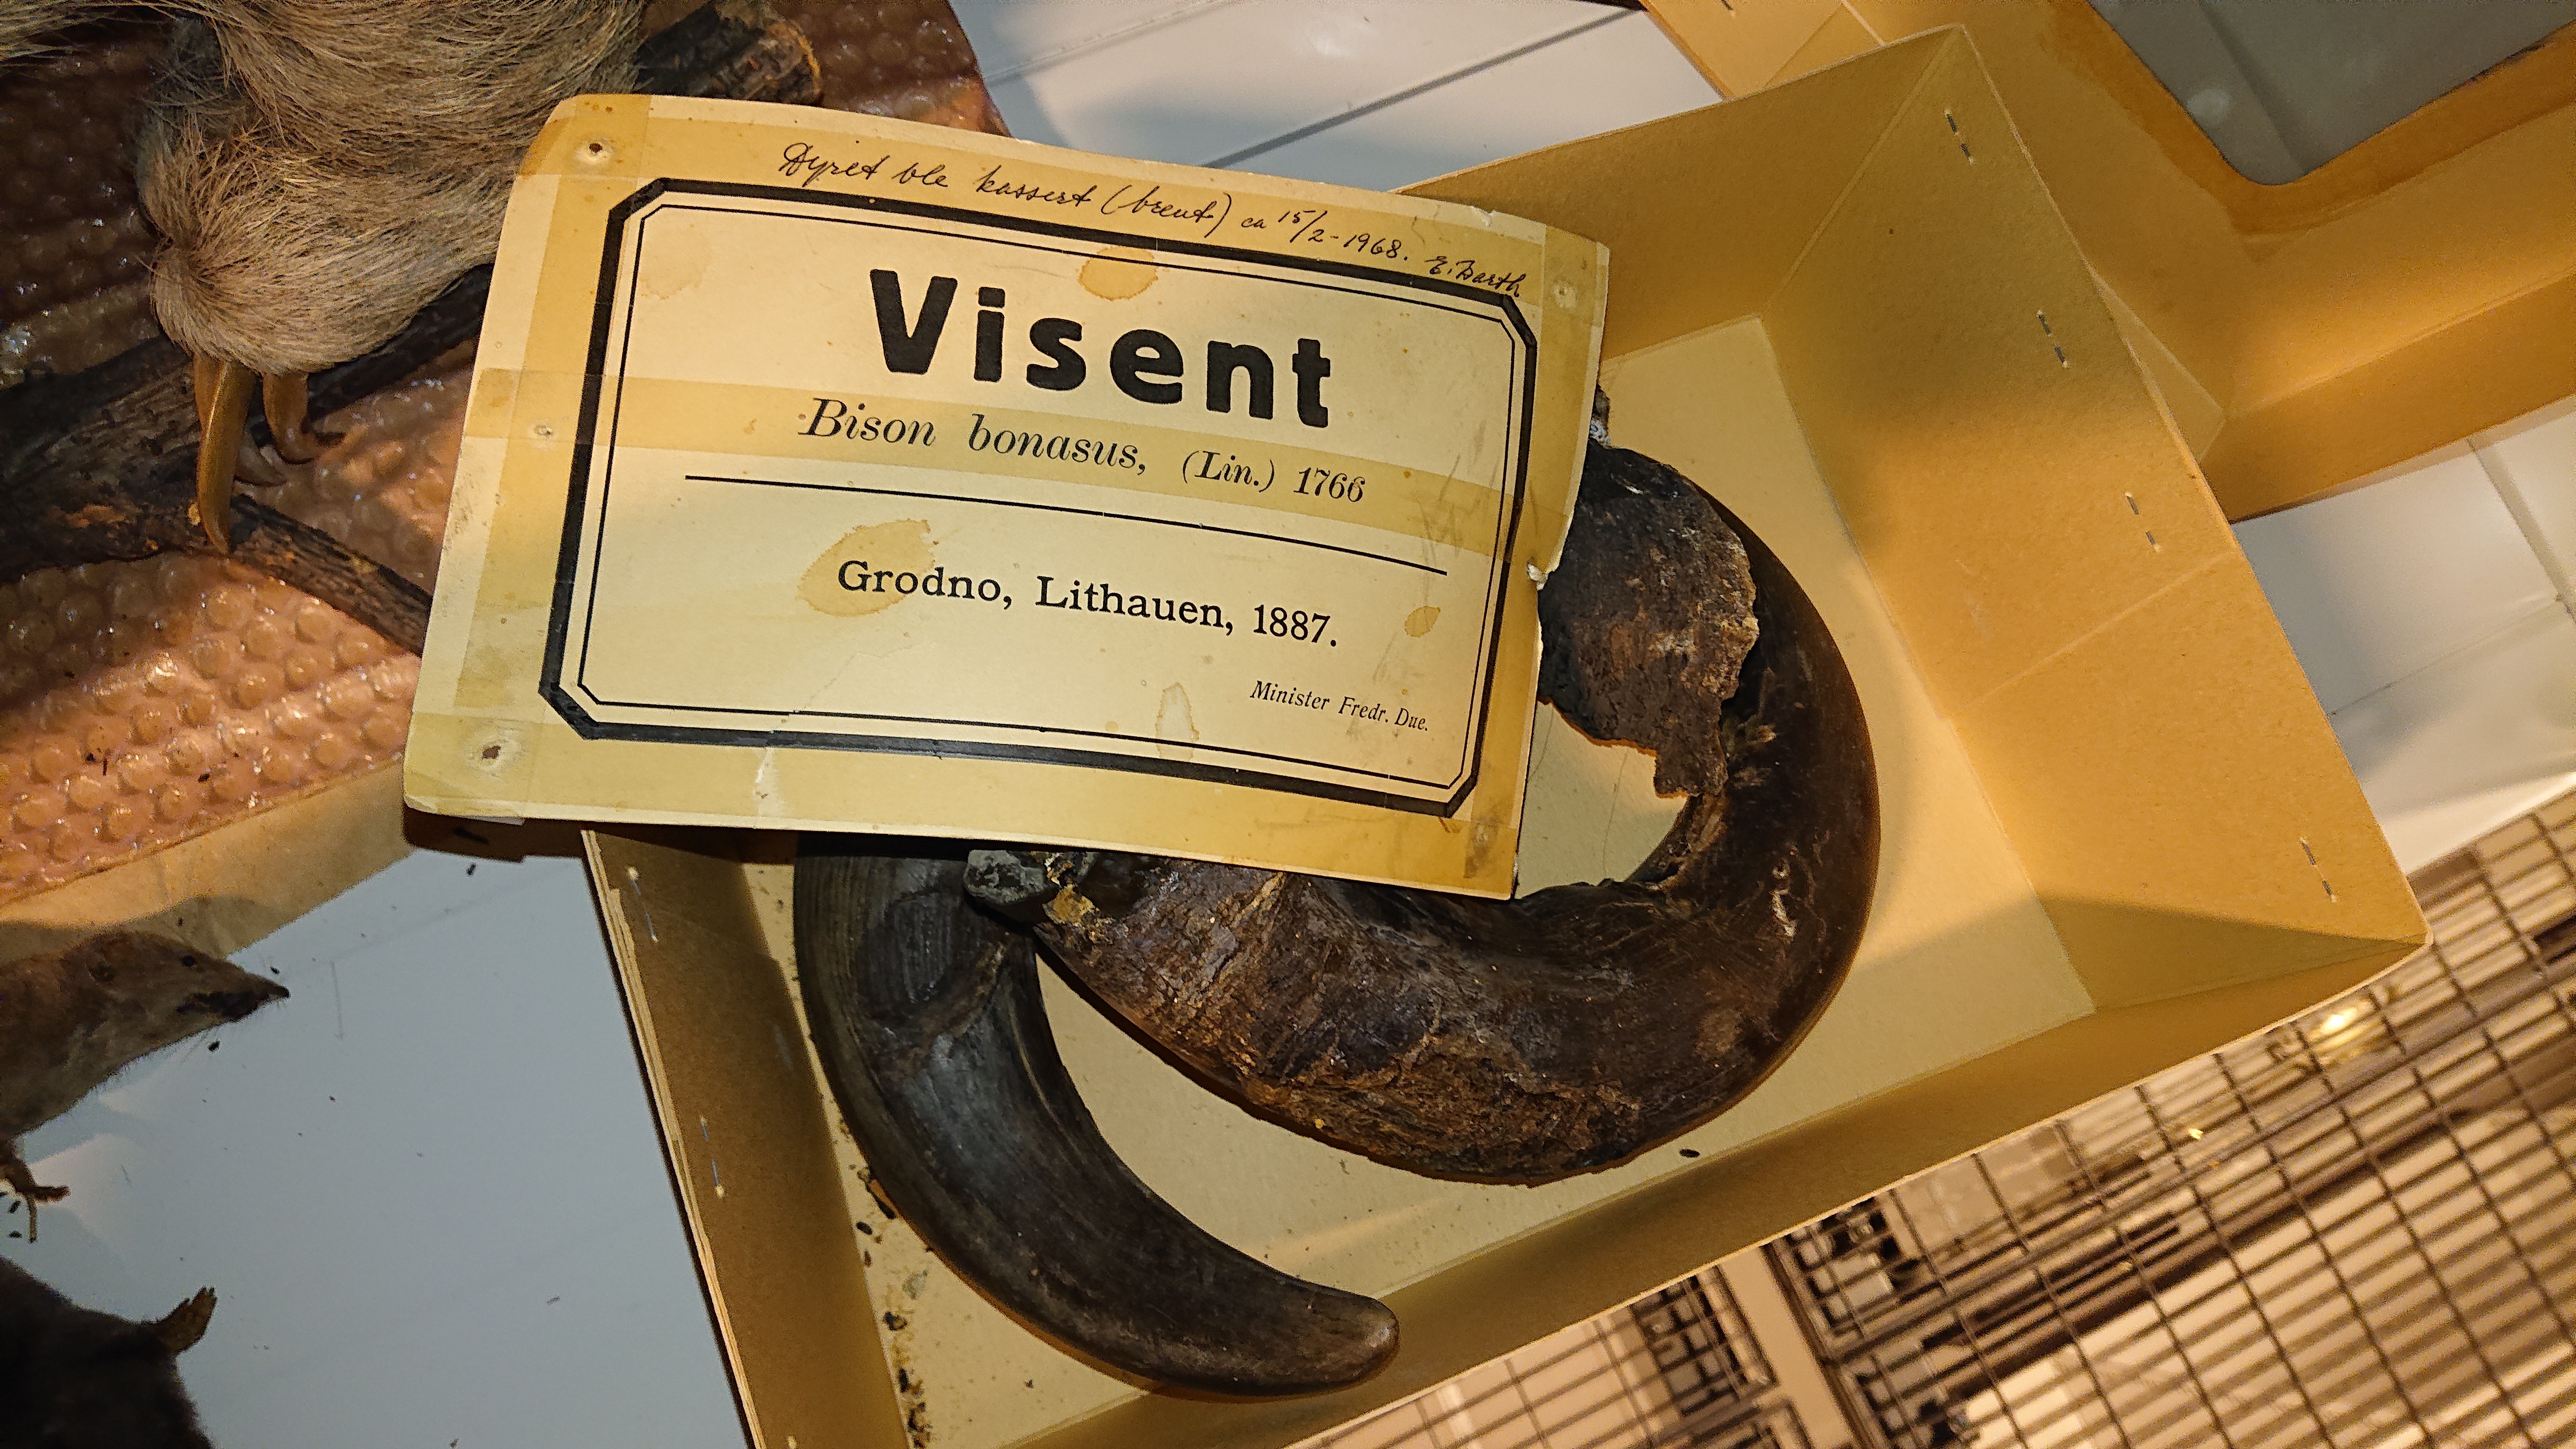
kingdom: Animalia
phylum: Chordata
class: Mammalia
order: Artiodactyla
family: Bovidae
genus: Bison
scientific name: Bison bonasus
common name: European bison
